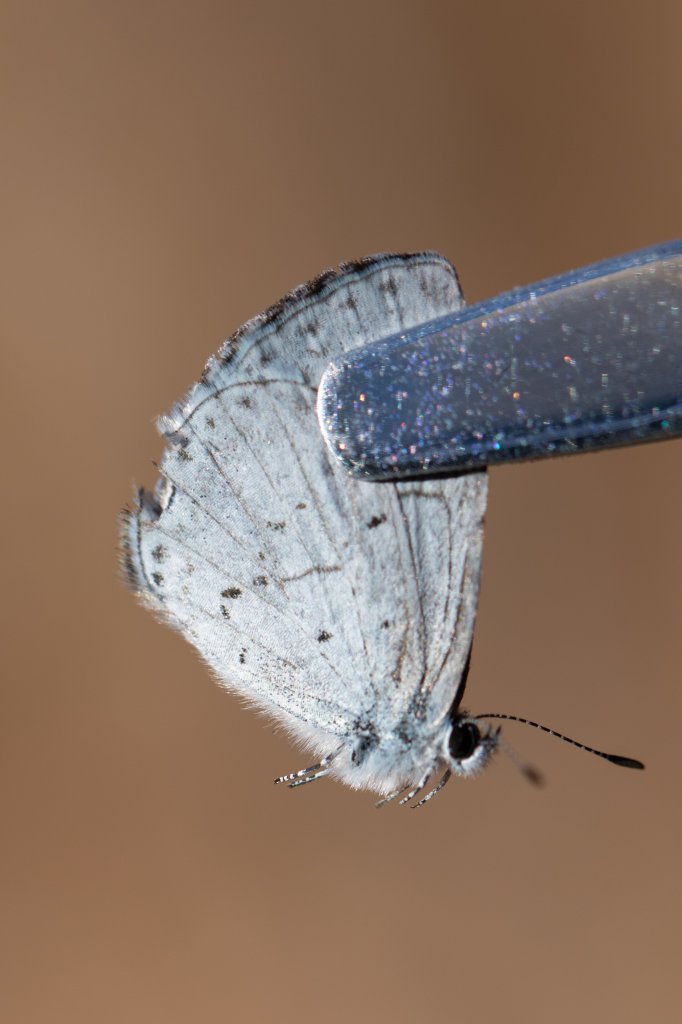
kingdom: Animalia
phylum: Arthropoda
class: Insecta
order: Lepidoptera
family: Lycaenidae
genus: Celastrina
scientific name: Celastrina
